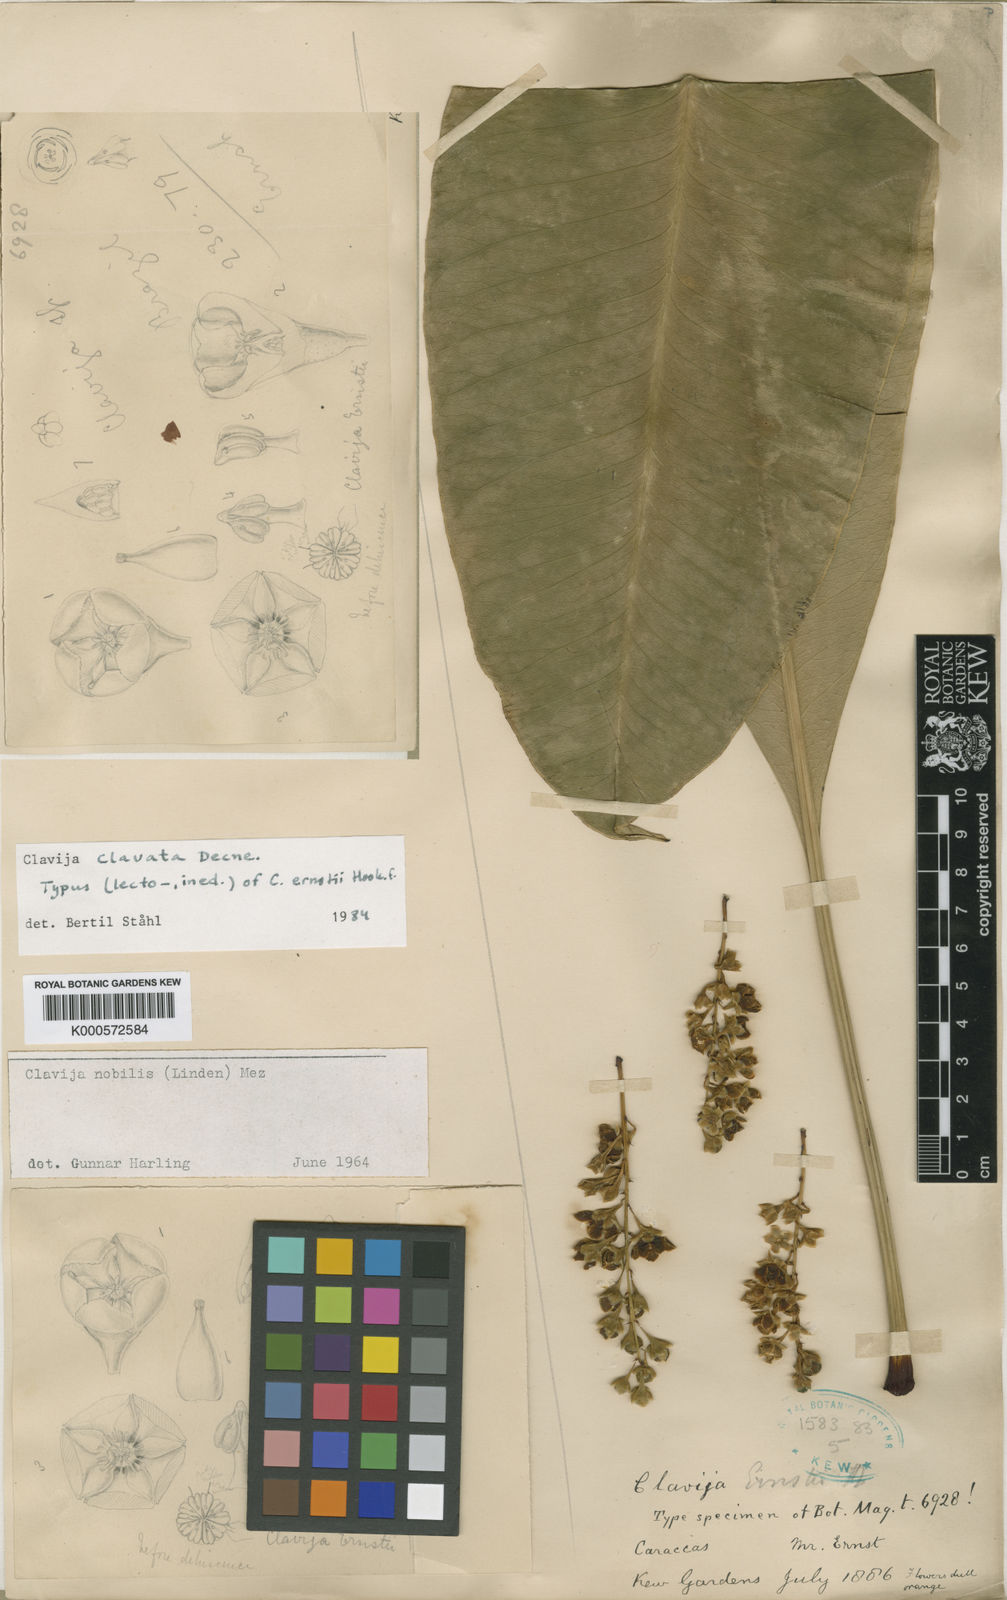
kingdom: Plantae
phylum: Tracheophyta
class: Magnoliopsida
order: Ericales
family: Primulaceae
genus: Clavija
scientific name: Clavija clavata
